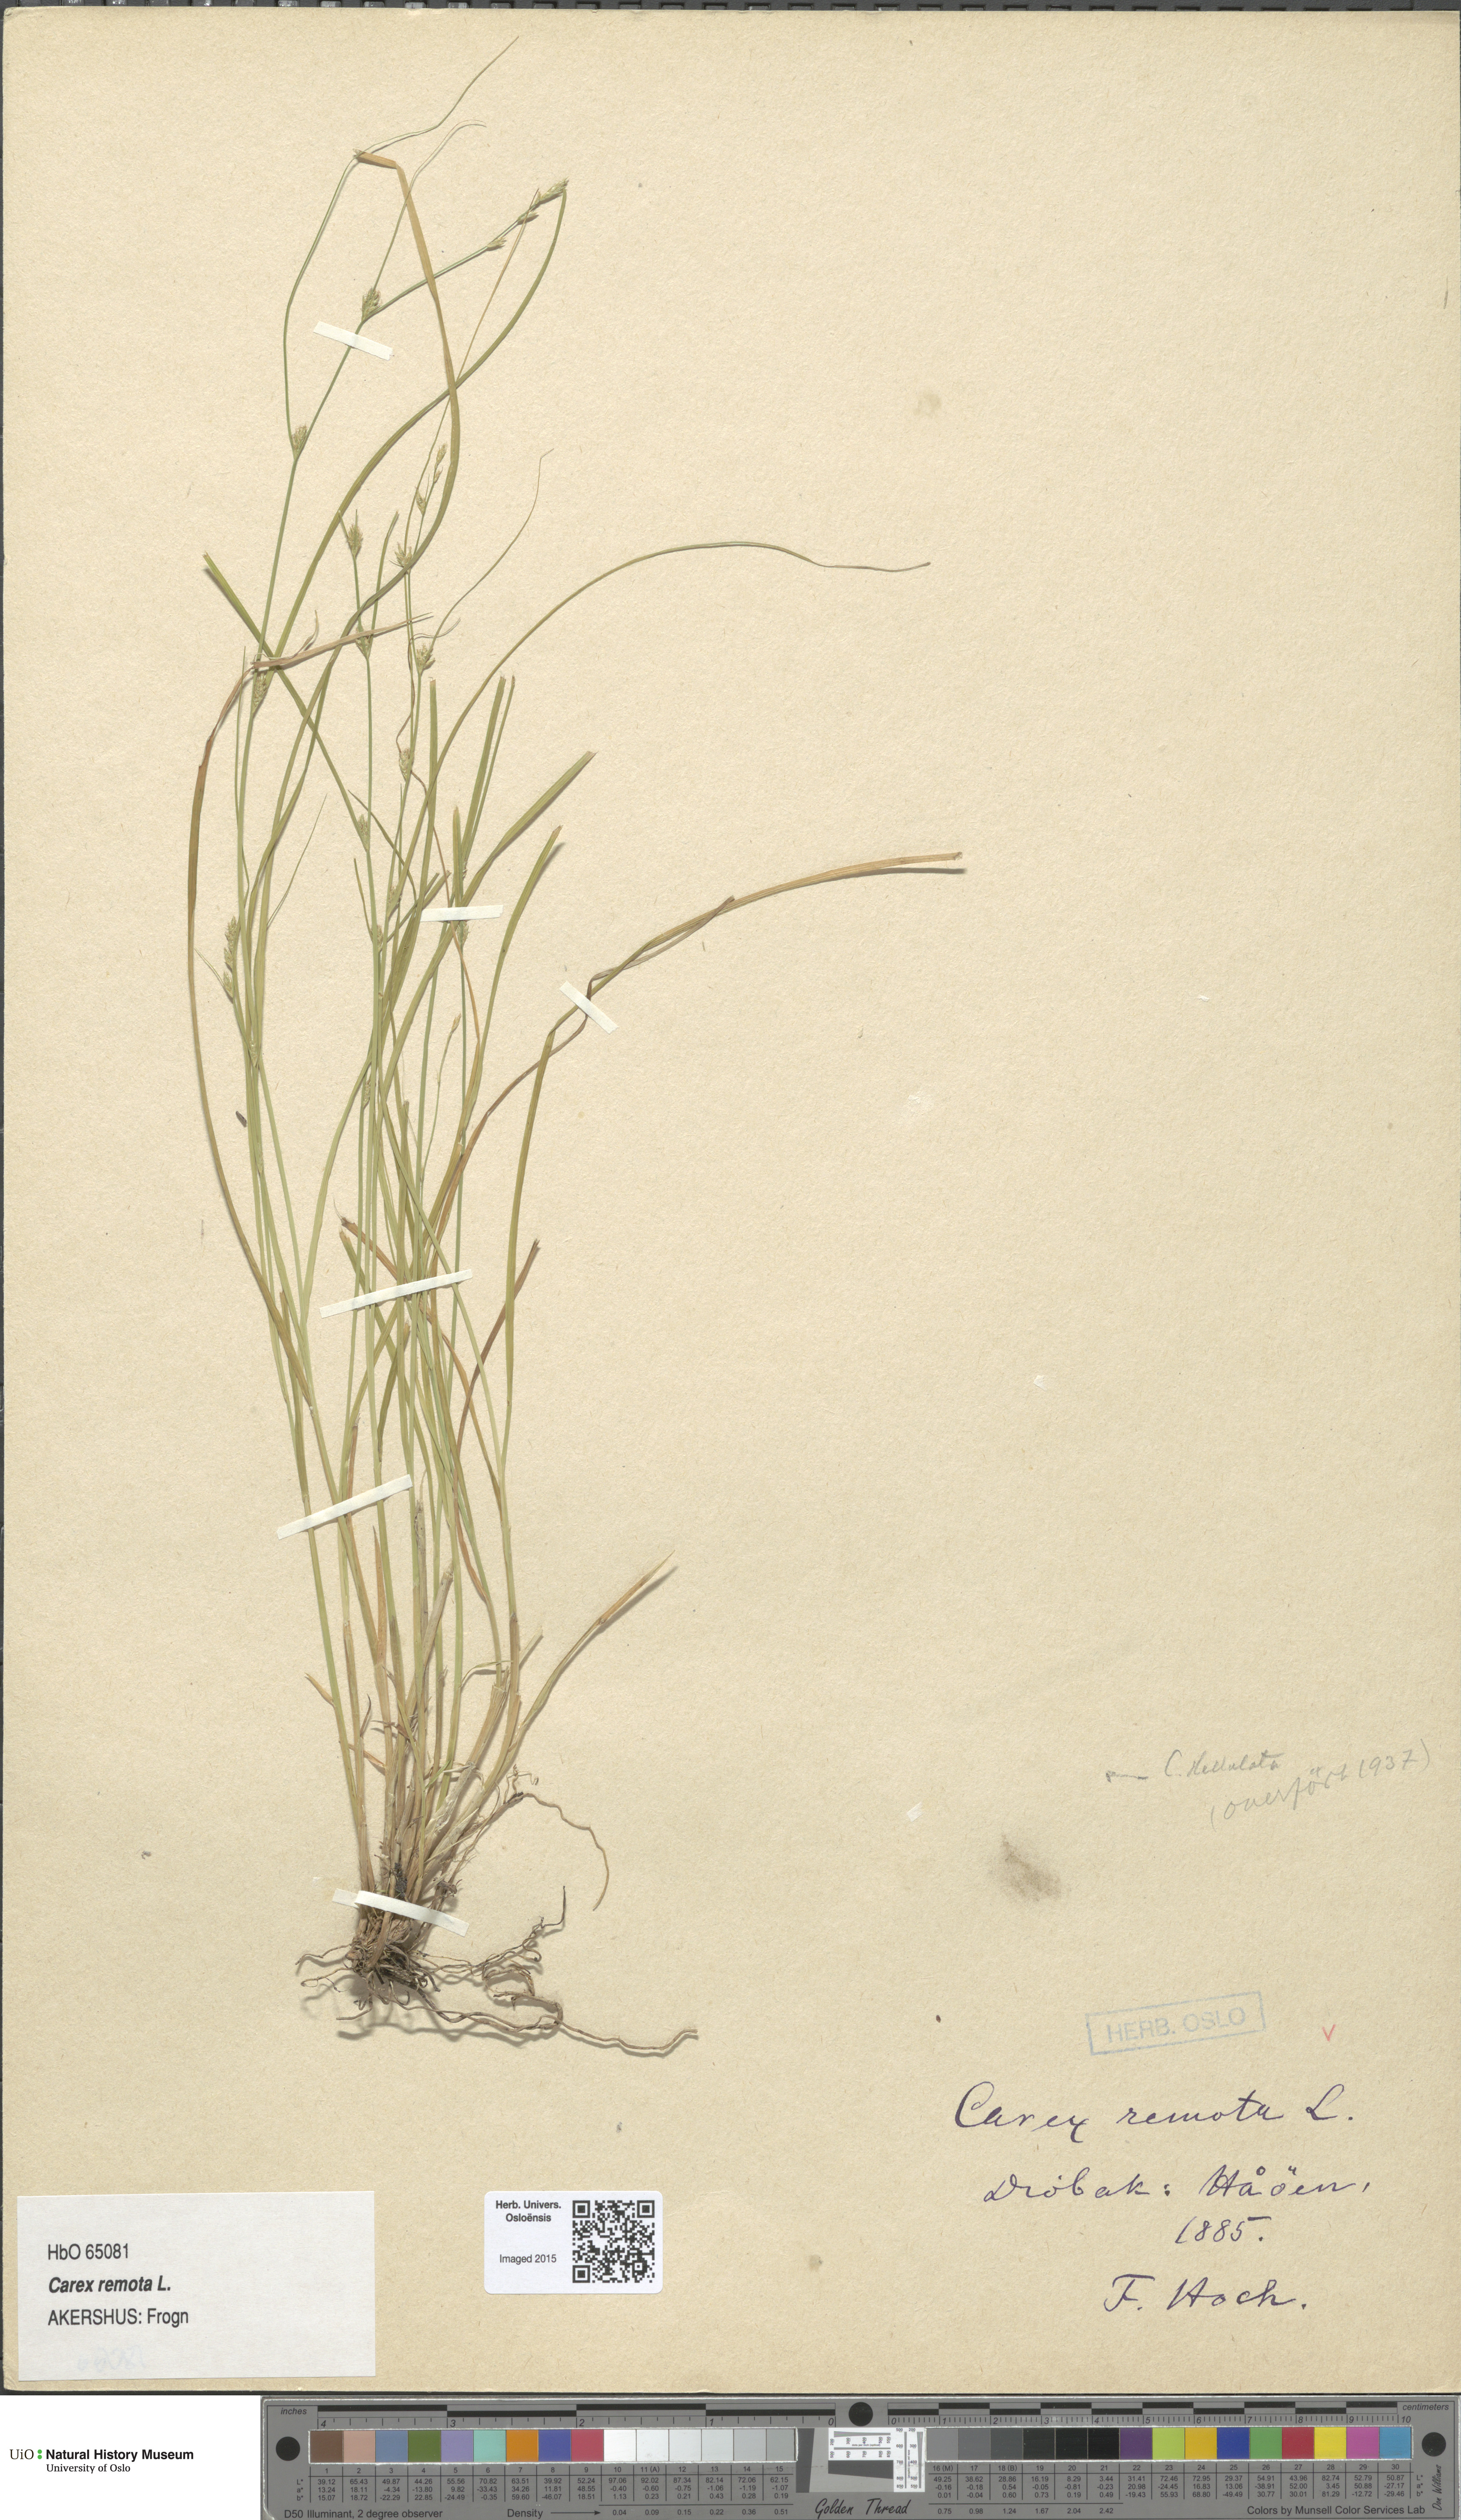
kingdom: Plantae
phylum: Tracheophyta
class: Liliopsida
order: Poales
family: Cyperaceae
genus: Carex
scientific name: Carex remota
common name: Remote sedge
